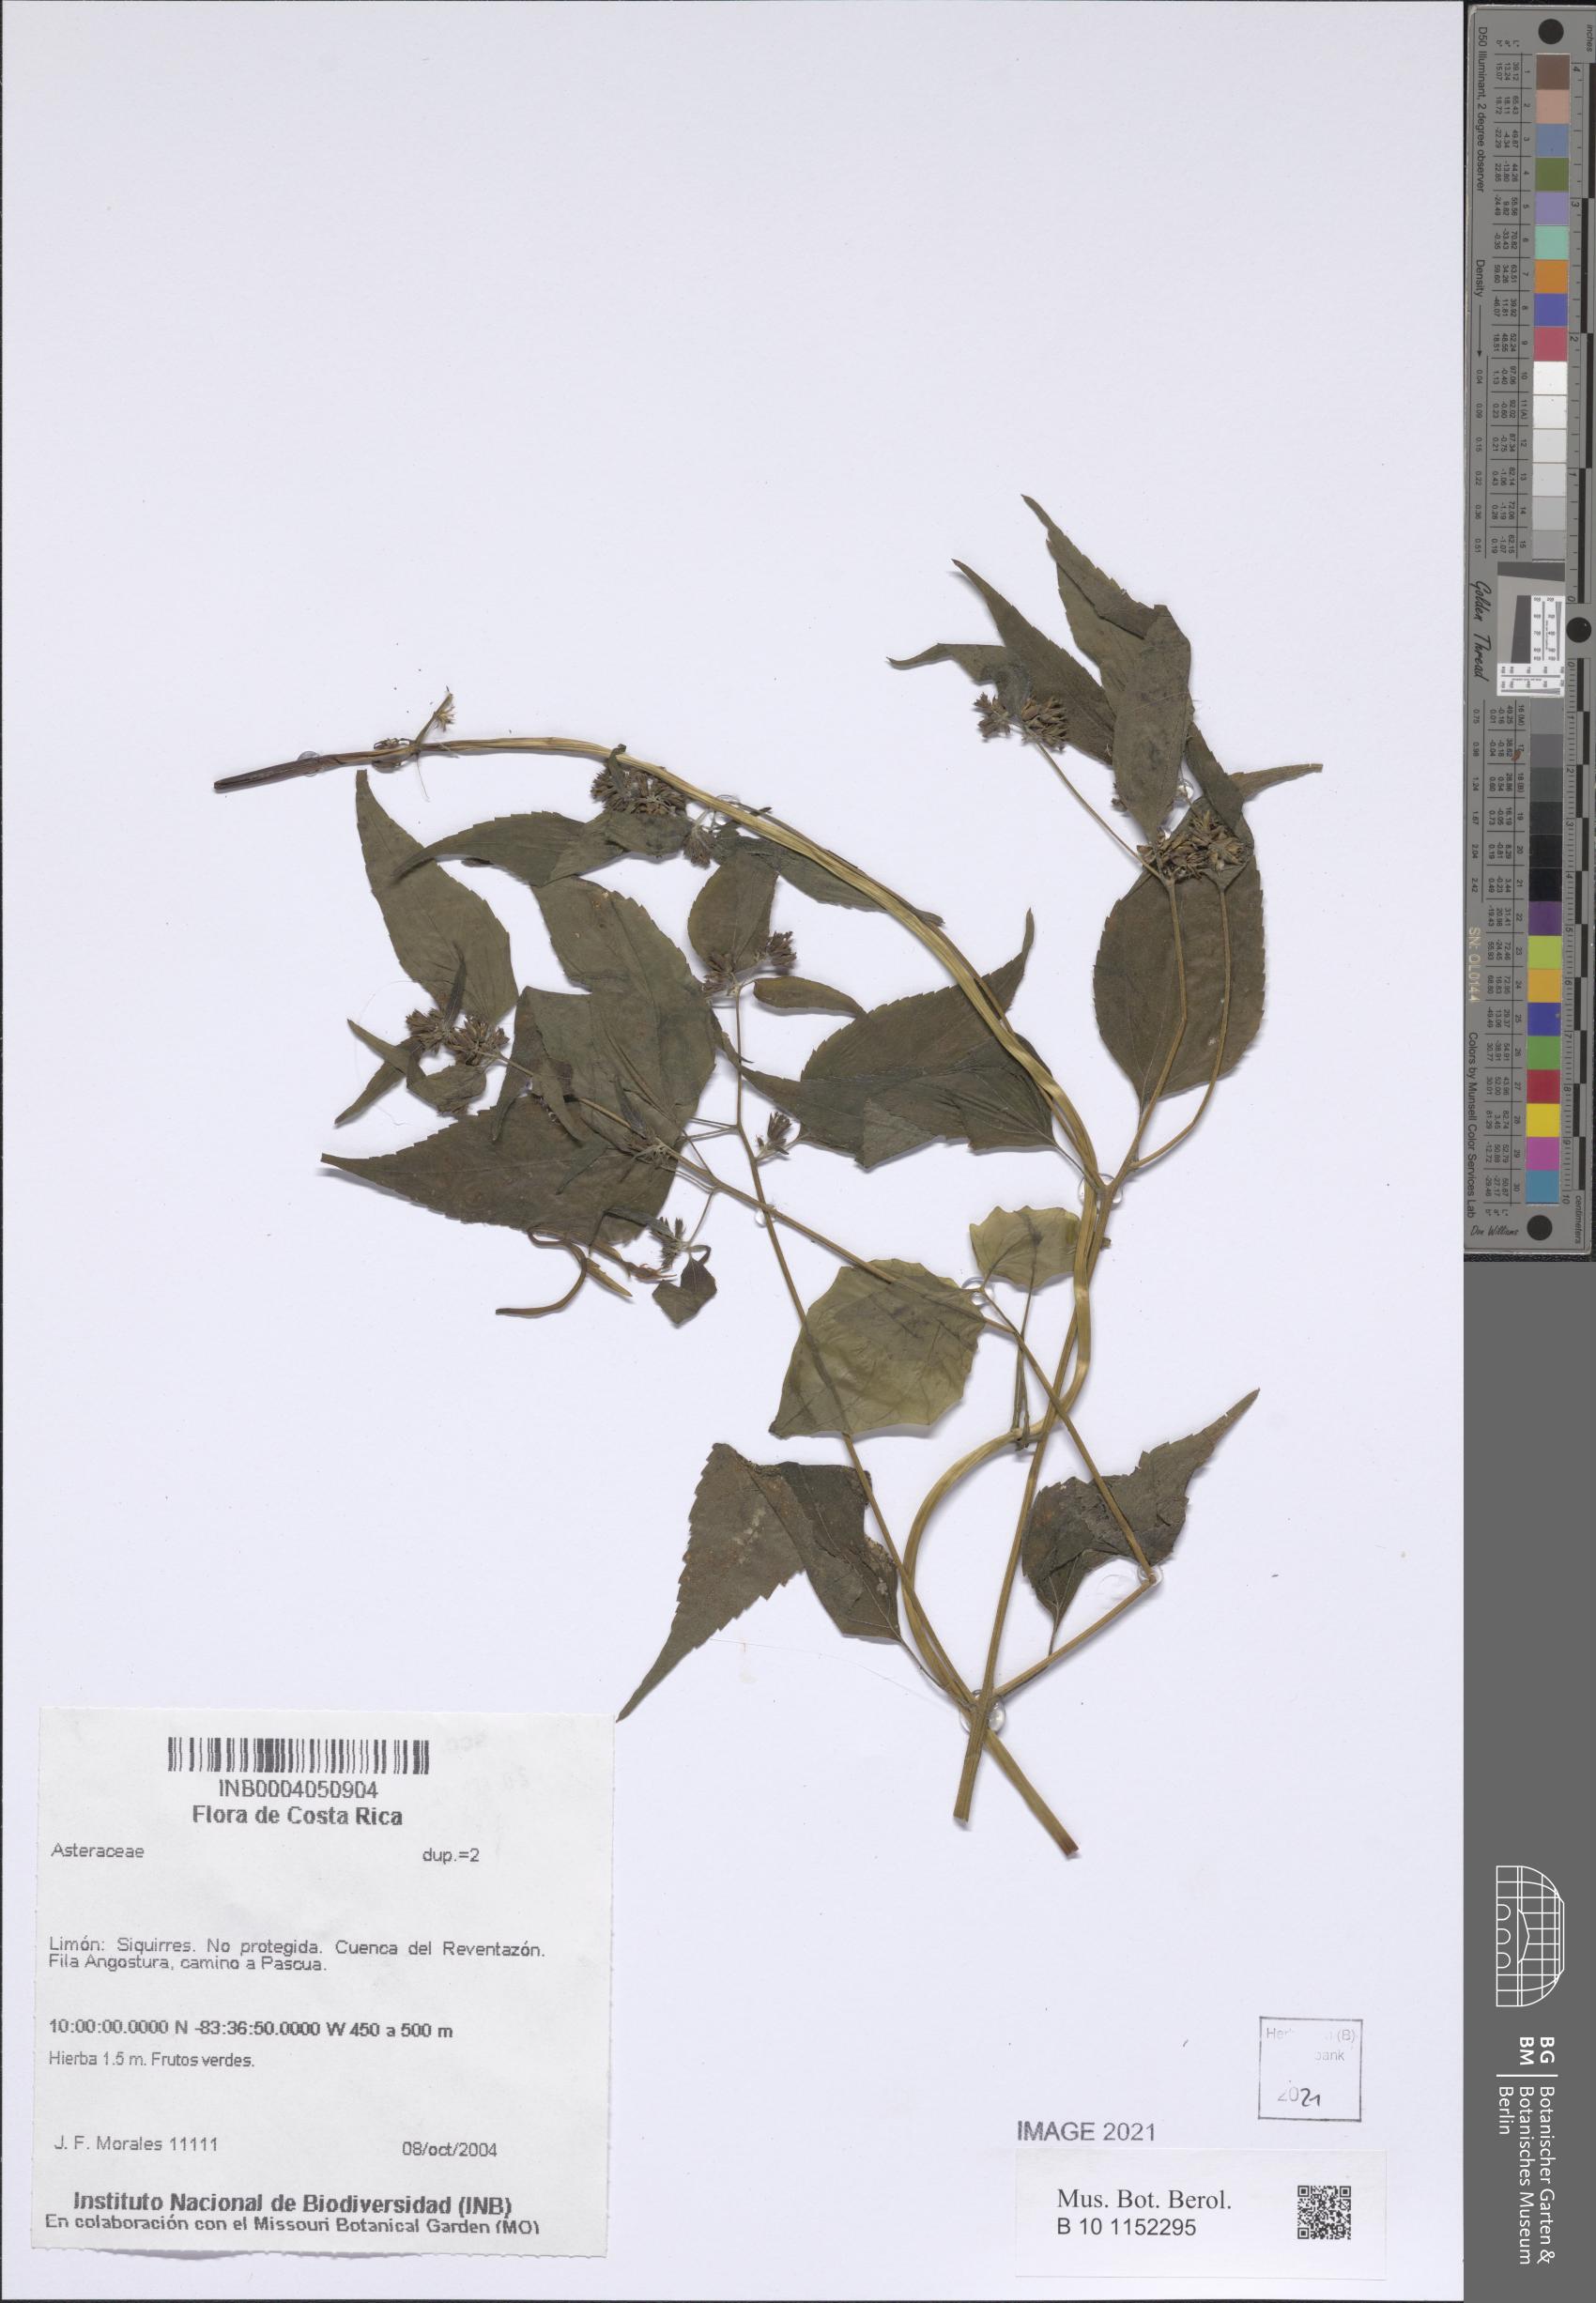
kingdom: Plantae
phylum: Tracheophyta
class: Magnoliopsida
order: Asterales
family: Asteraceae
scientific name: Asteraceae
